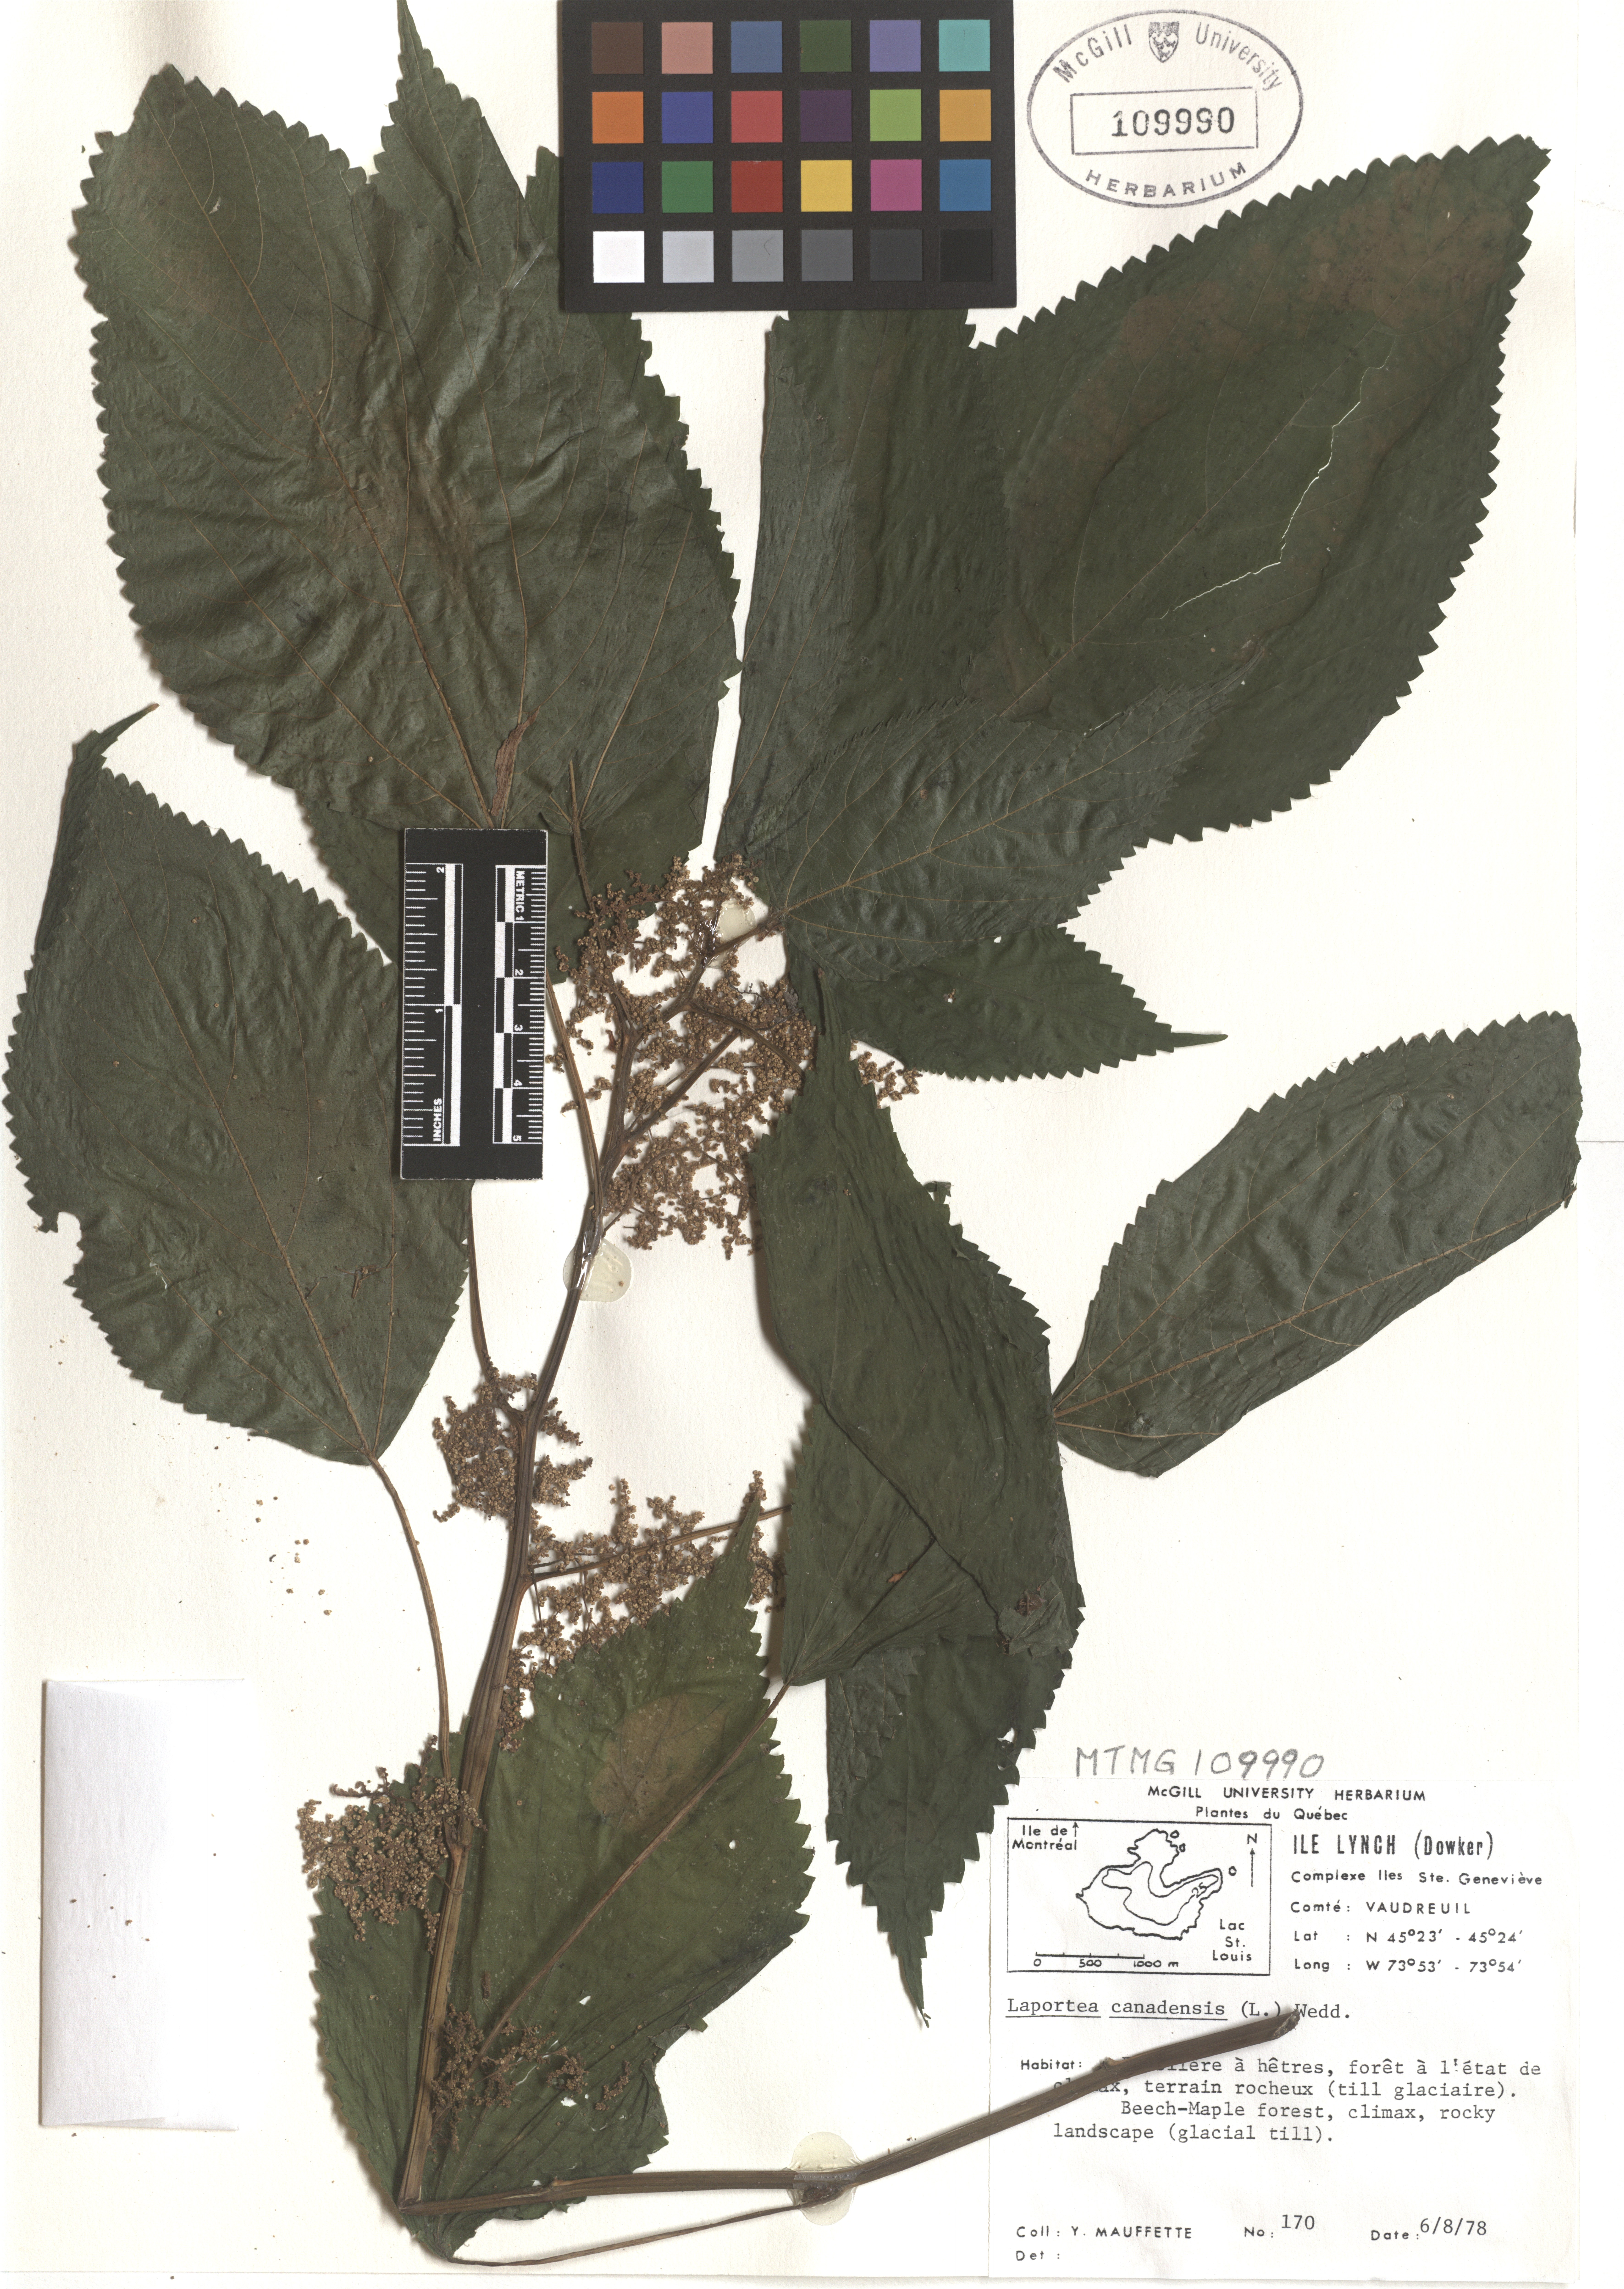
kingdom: Plantae
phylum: Tracheophyta
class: Magnoliopsida
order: Rosales
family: Urticaceae
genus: Laportea
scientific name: Laportea canadensis
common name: Canada nettle
